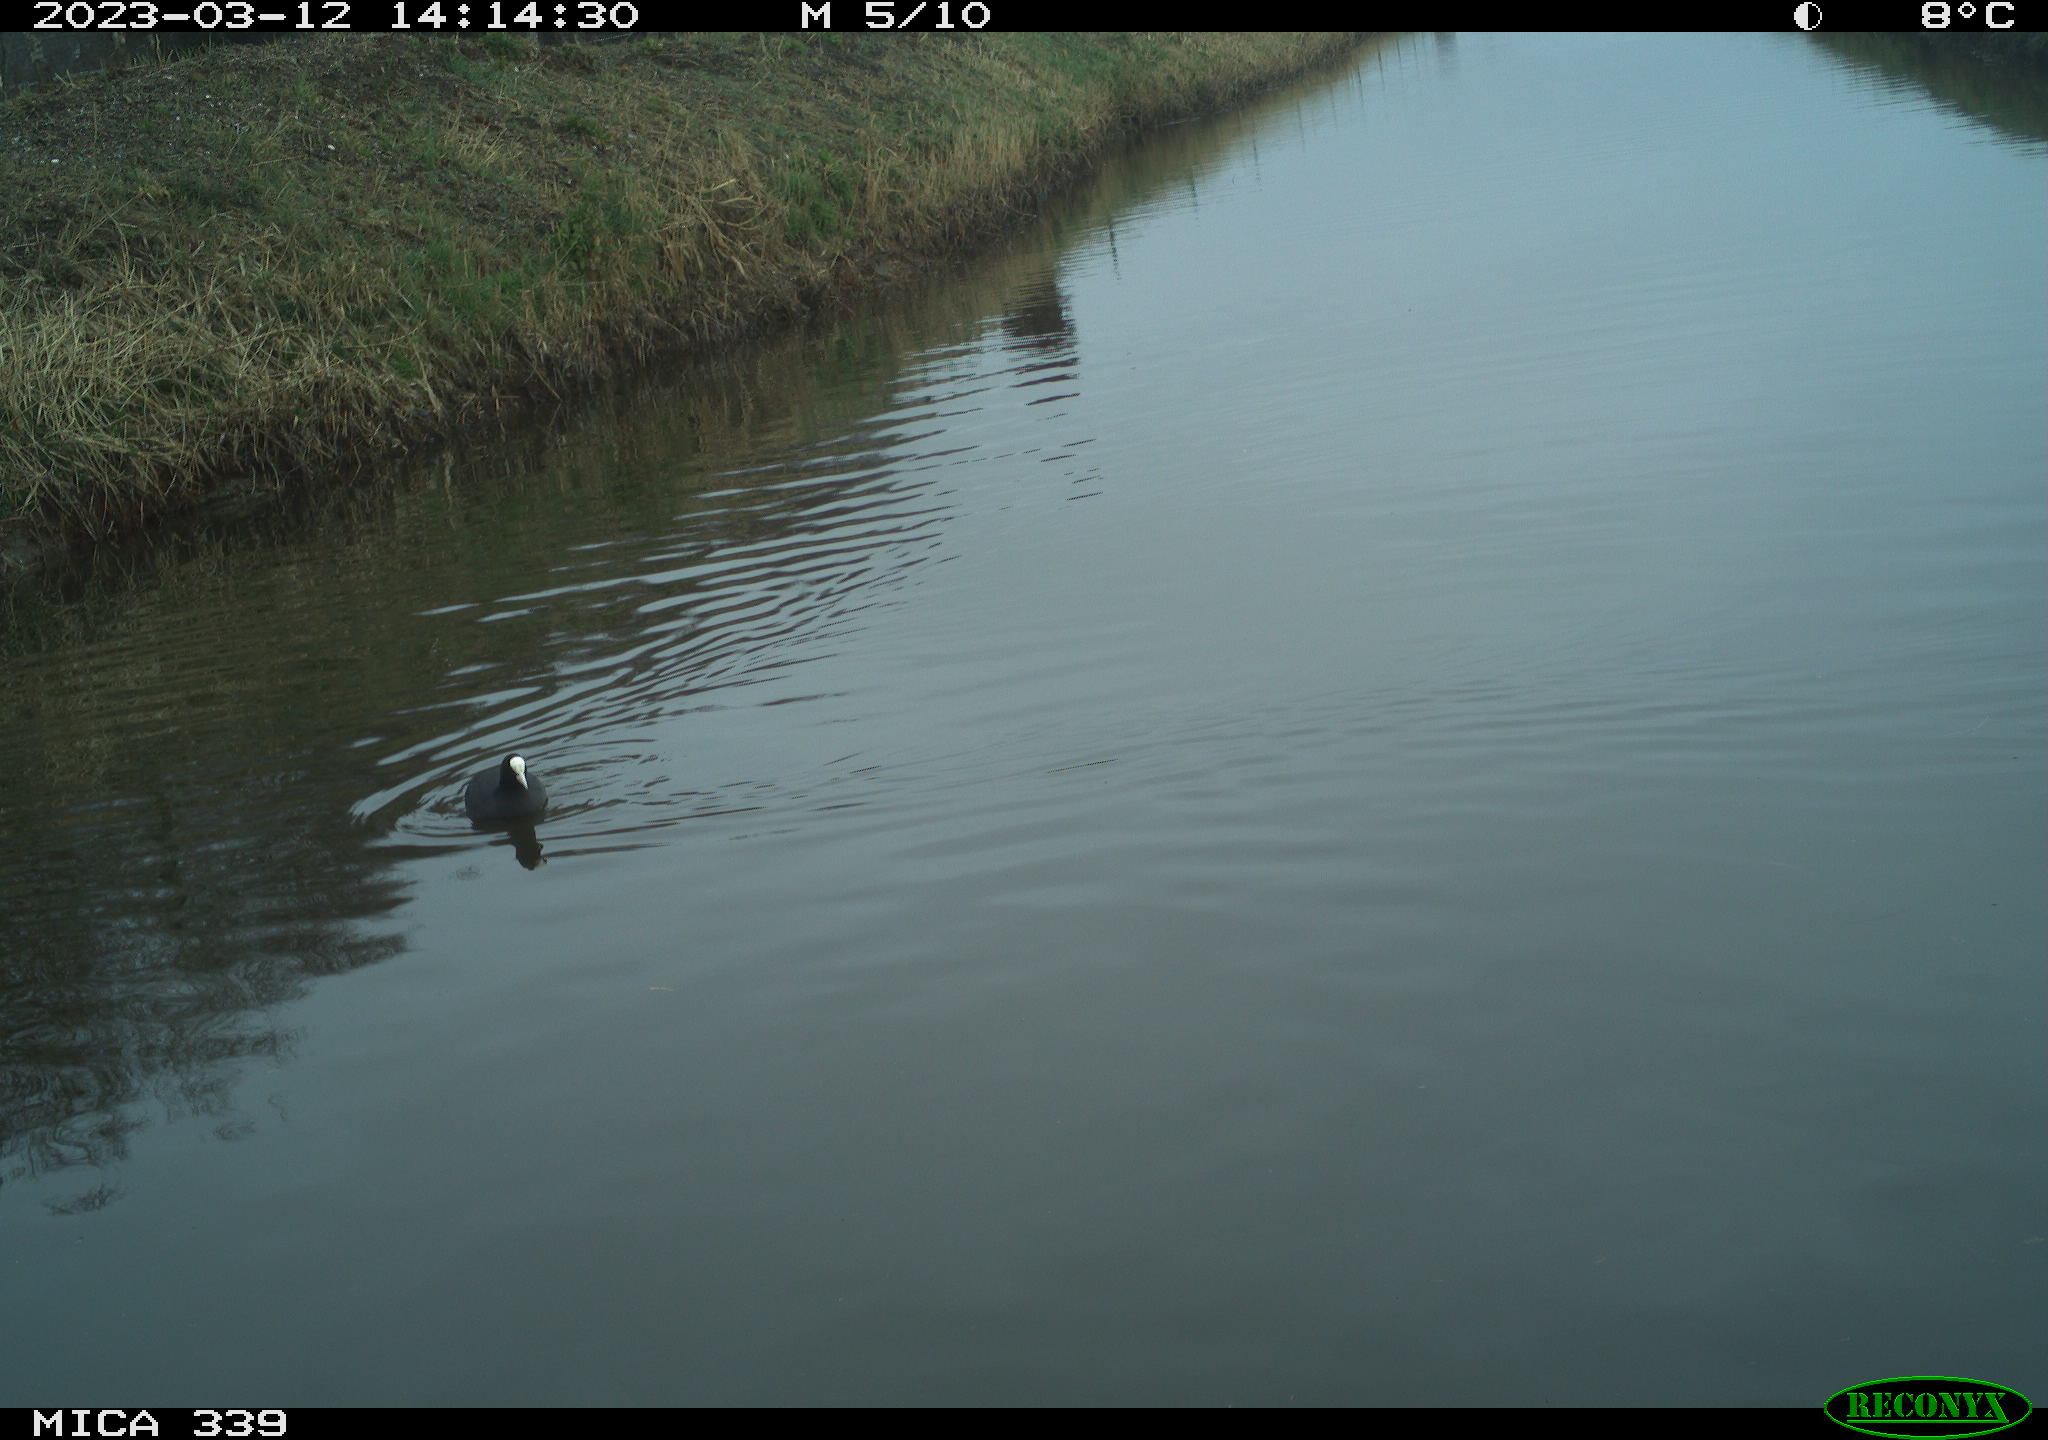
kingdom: Animalia
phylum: Chordata
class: Aves
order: Gruiformes
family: Rallidae
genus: Fulica
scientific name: Fulica atra
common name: Eurasian coot
